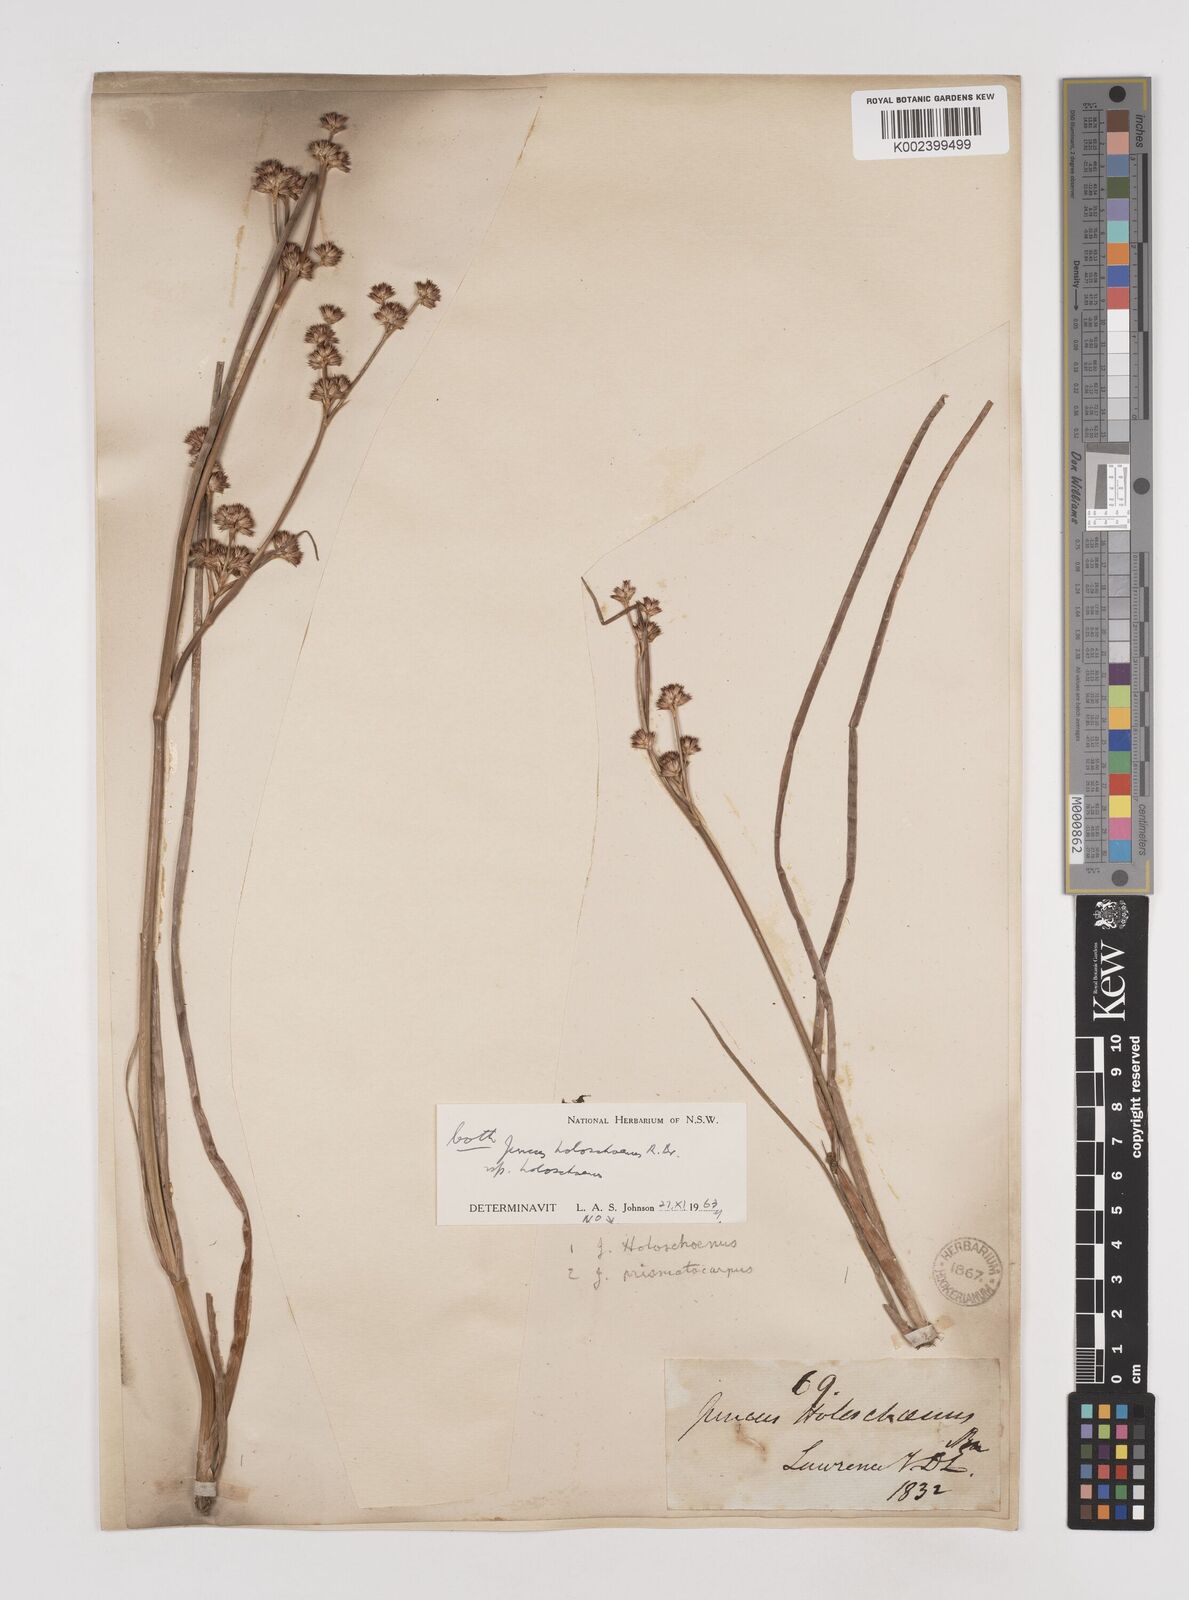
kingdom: Plantae
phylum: Tracheophyta
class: Liliopsida
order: Poales
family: Juncaceae
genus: Juncus
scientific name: Juncus holoschoenus
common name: Joint-leaf rush
